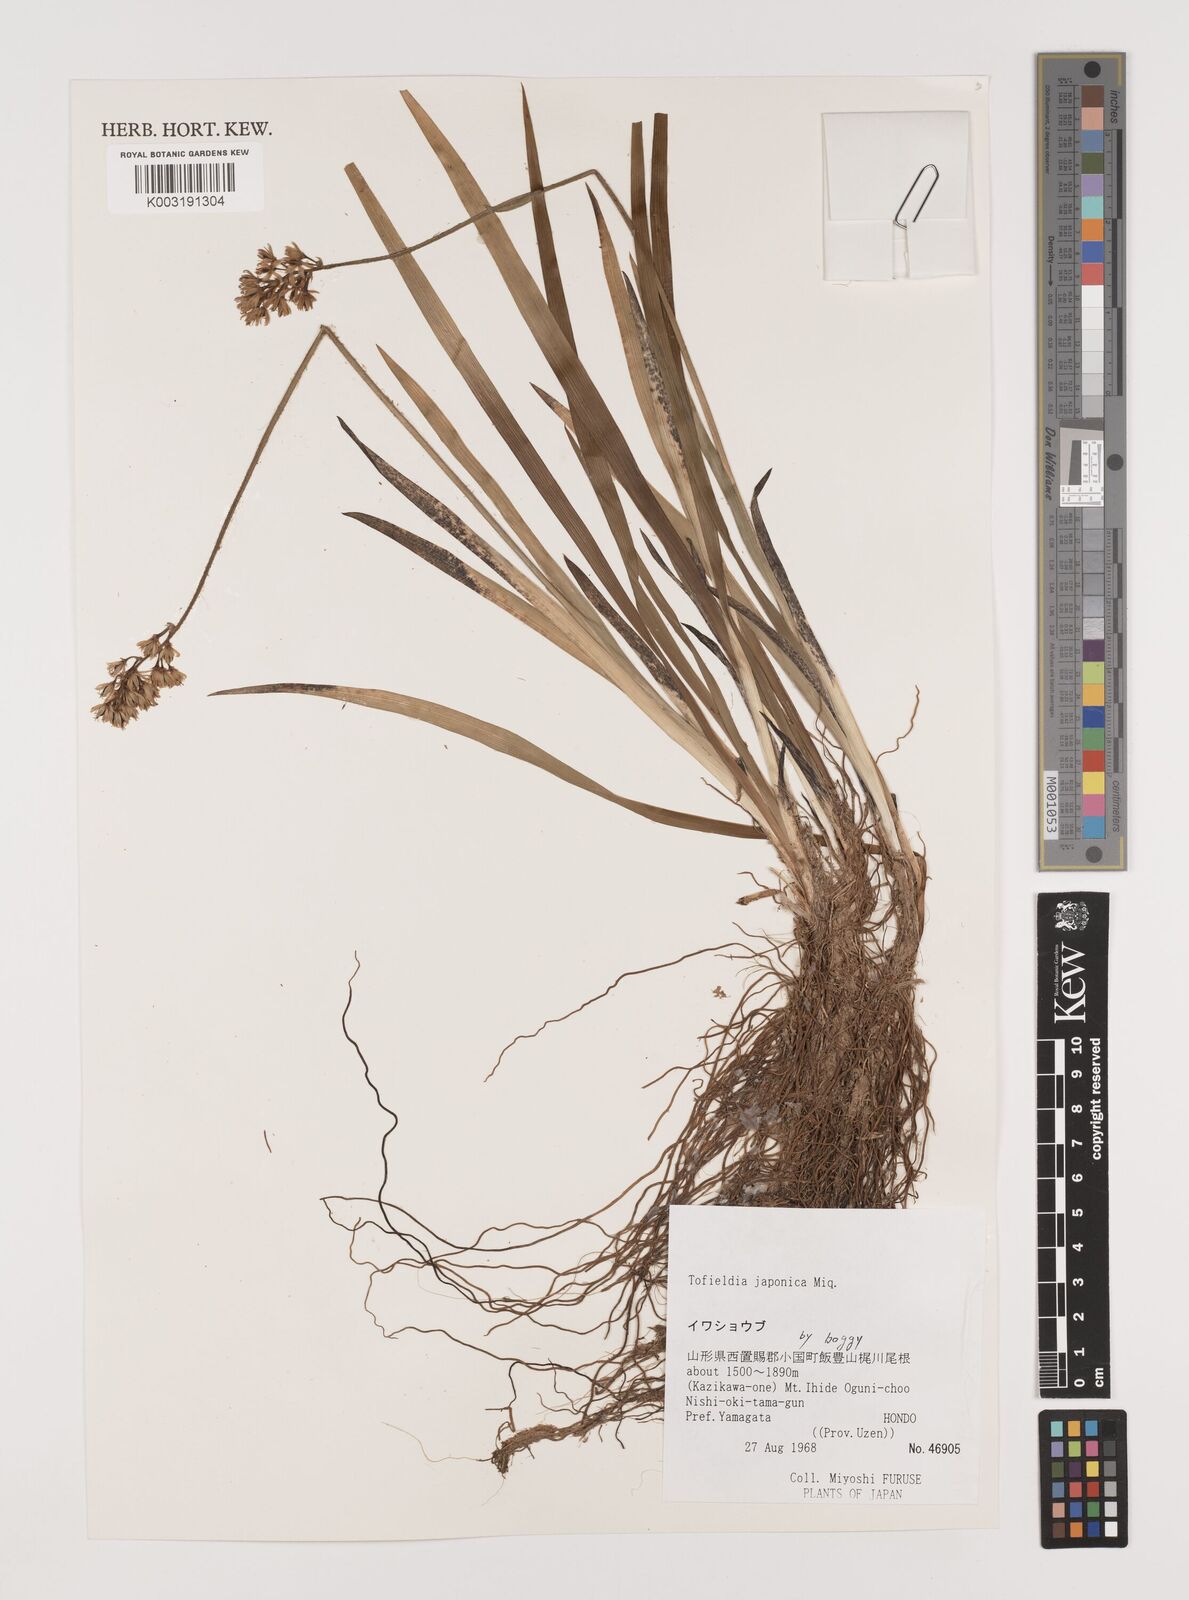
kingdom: Plantae
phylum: Tracheophyta
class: Liliopsida
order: Alismatales
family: Tofieldiaceae
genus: Triantha
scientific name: Triantha japonica
